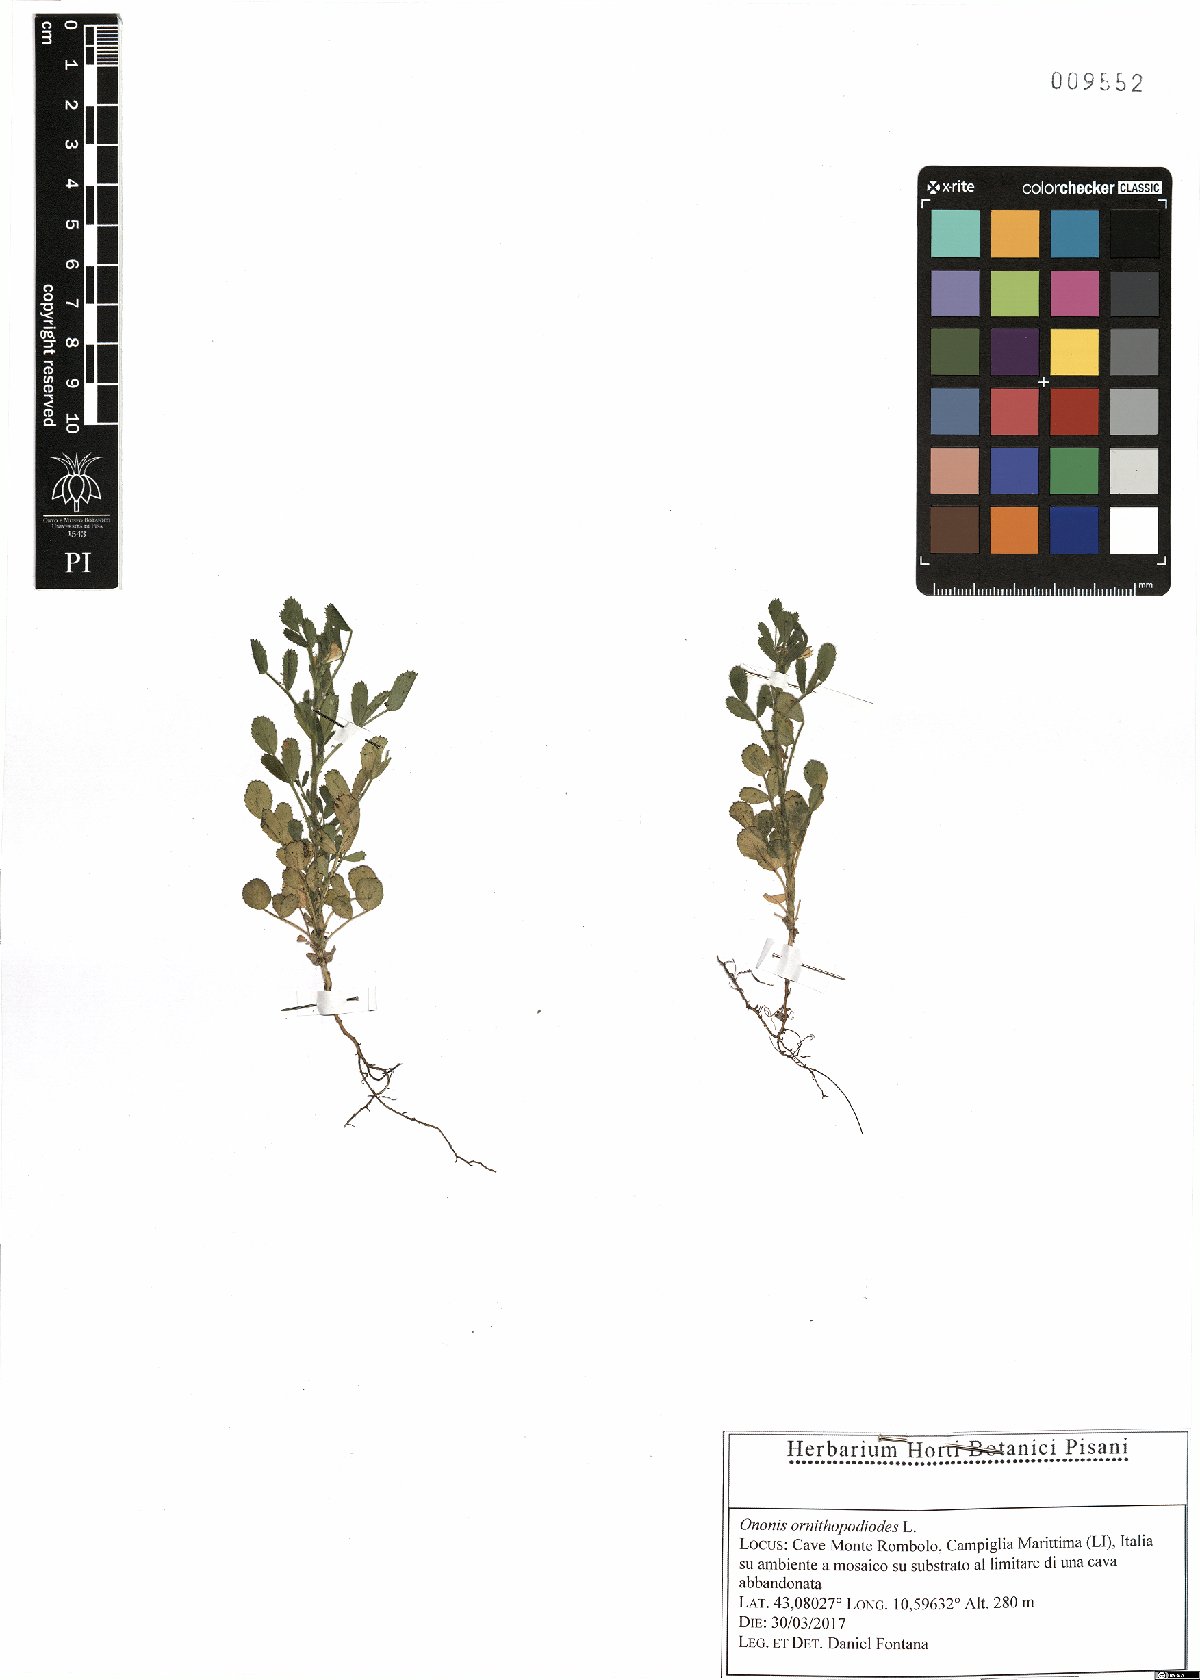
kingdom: Plantae
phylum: Tracheophyta
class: Magnoliopsida
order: Fabales
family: Fabaceae
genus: Ononis
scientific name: Ononis ornithopodioides
